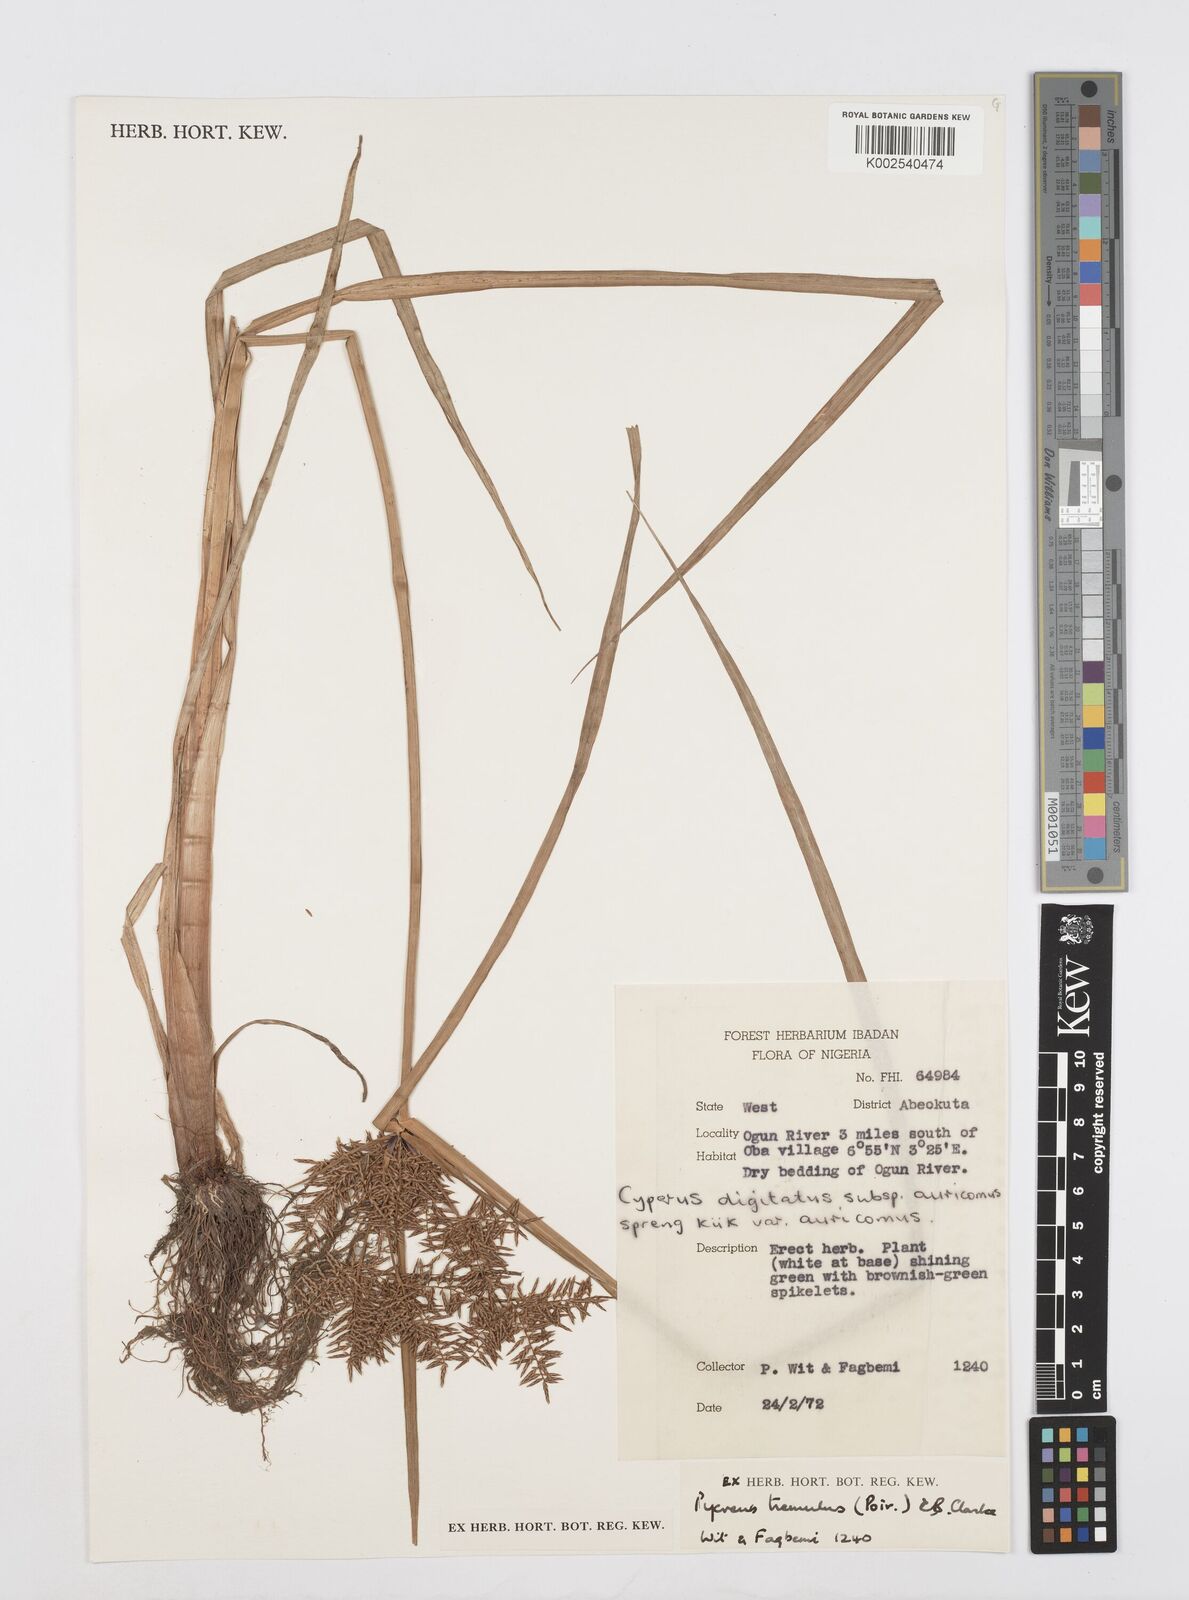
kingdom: Plantae
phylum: Tracheophyta
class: Liliopsida
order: Poales
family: Cyperaceae
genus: Cyperus
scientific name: Cyperus macrostachyos
